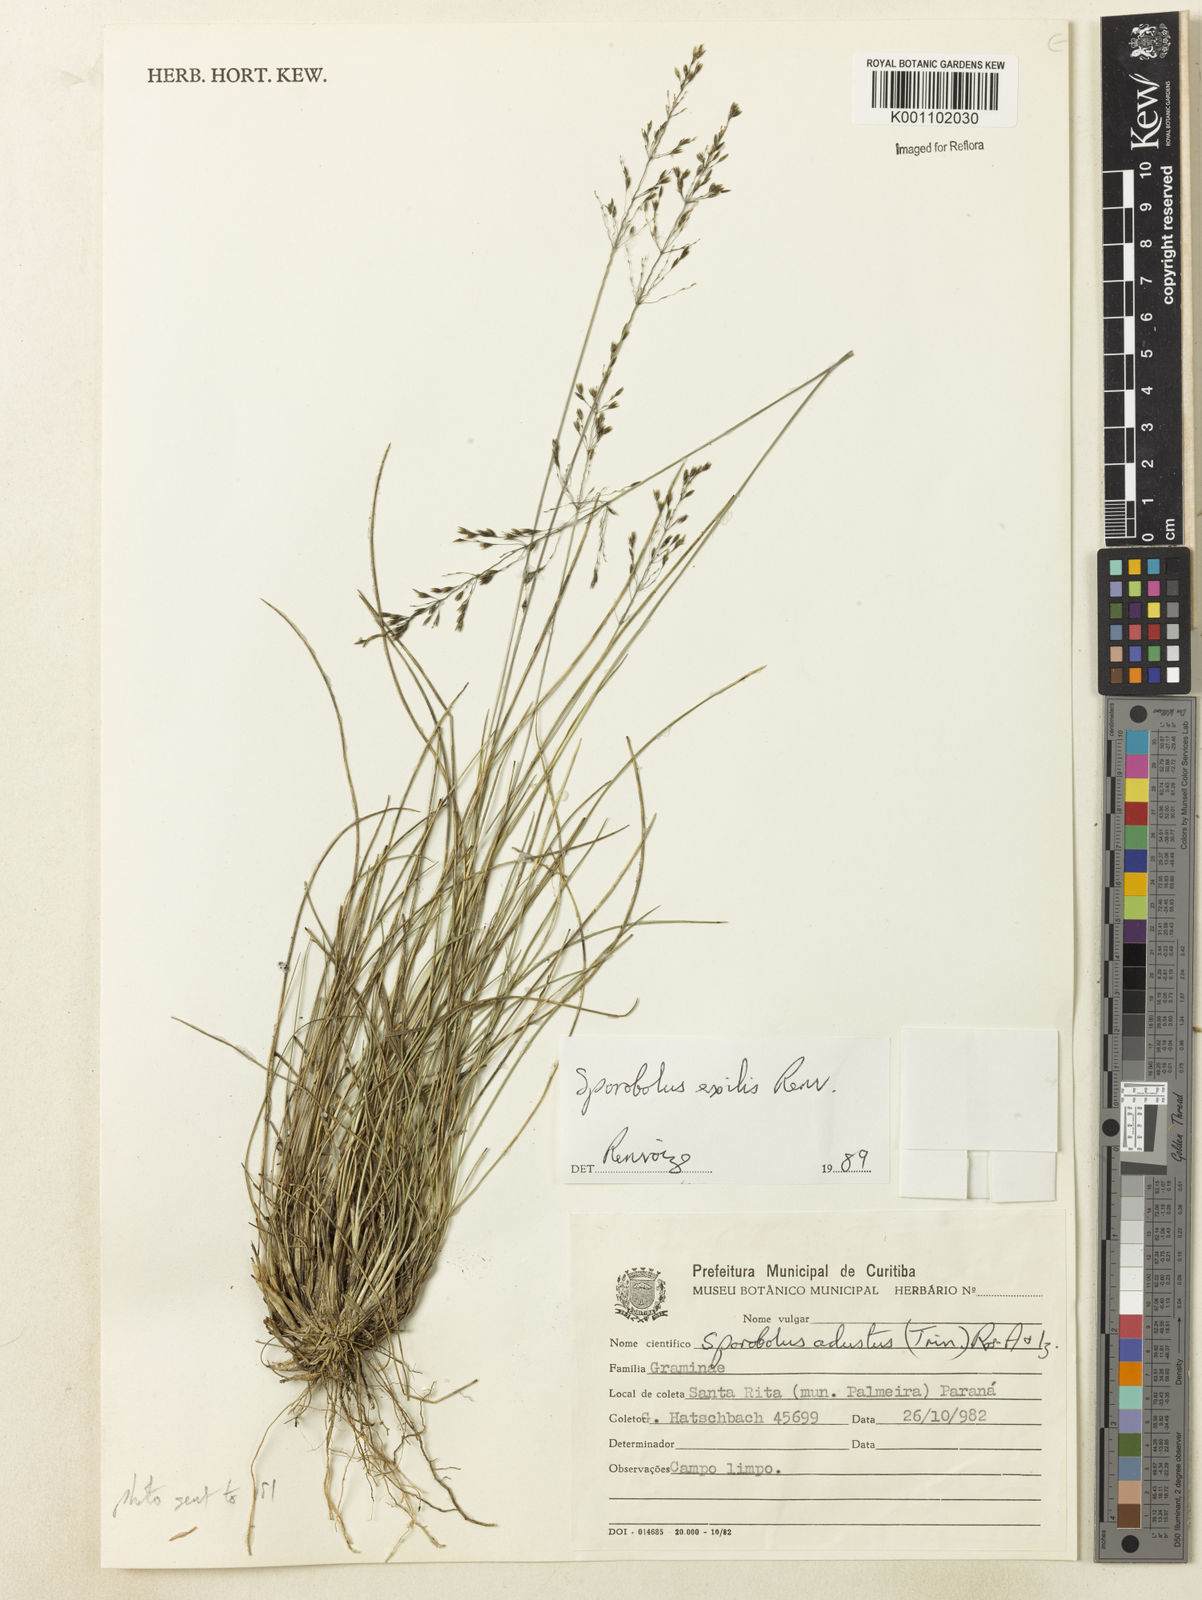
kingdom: Plantae
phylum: Tracheophyta
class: Liliopsida
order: Poales
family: Poaceae
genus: Sporobolus
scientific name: Sporobolus linearifolius
